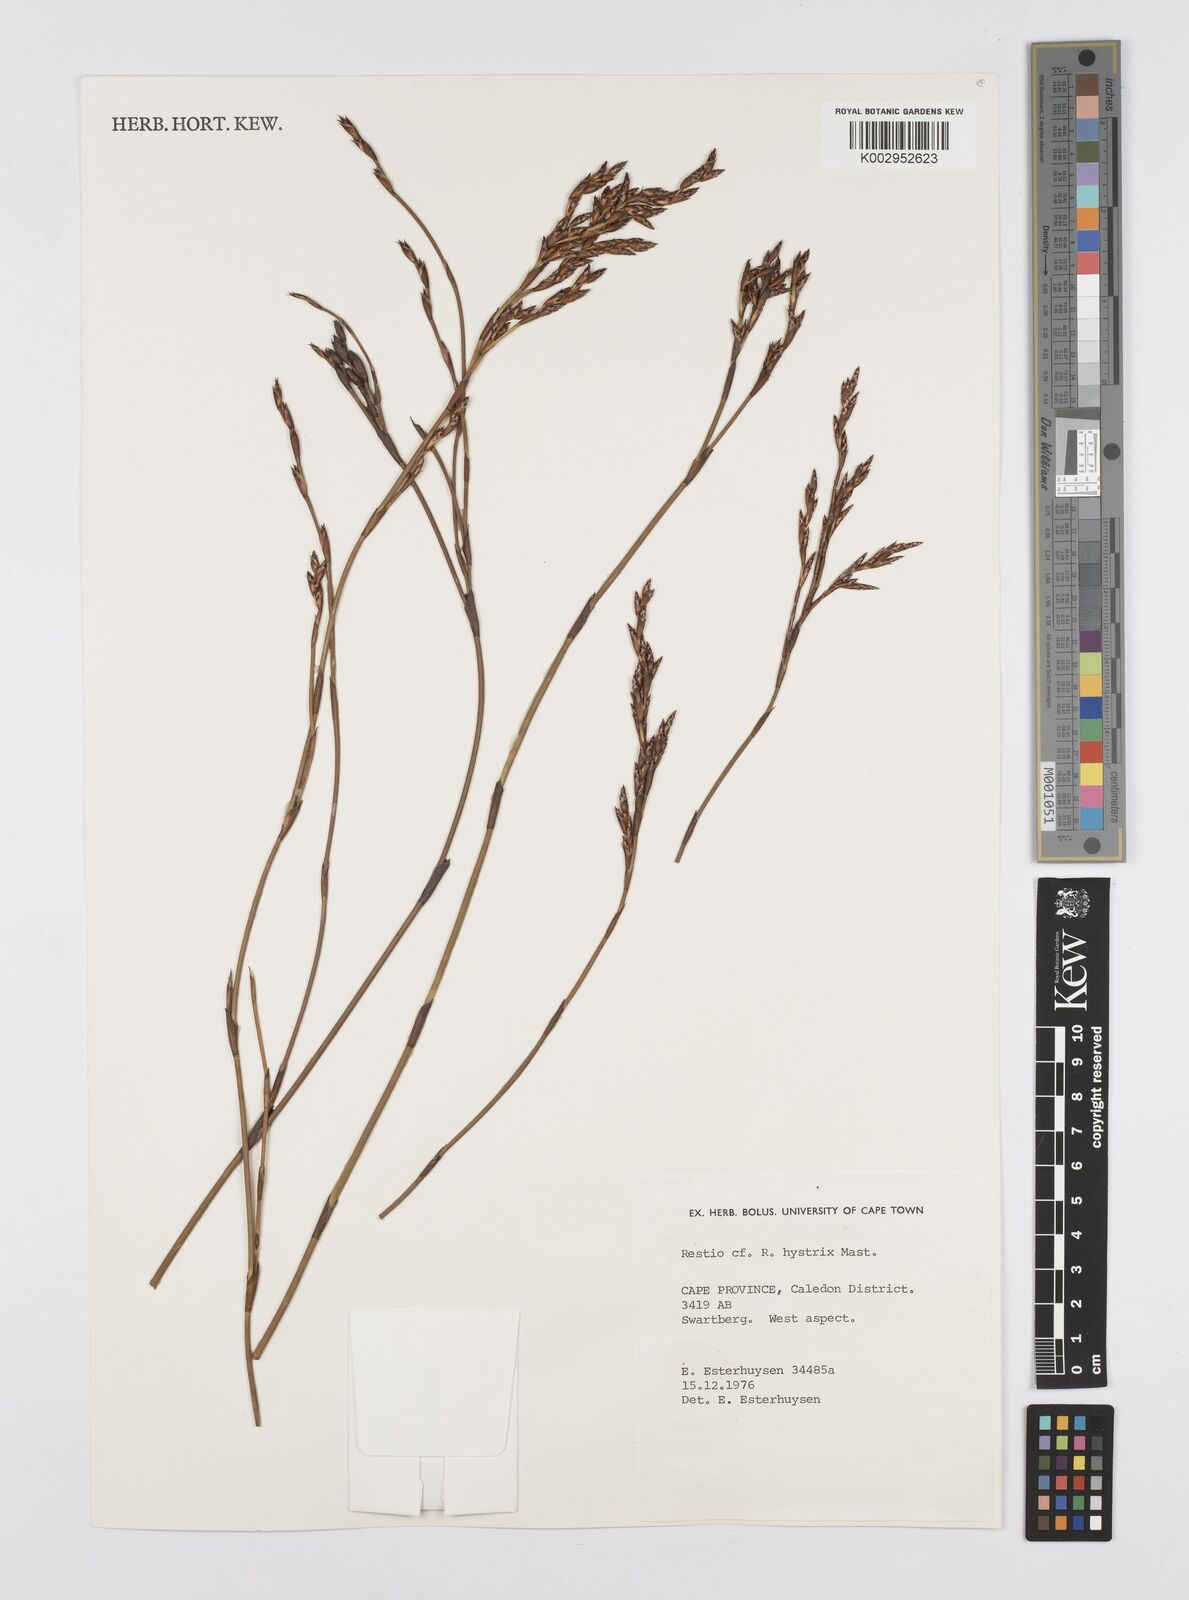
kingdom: Plantae
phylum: Tracheophyta
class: Liliopsida
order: Poales
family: Restionaceae
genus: Restio
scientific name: Restio hystrix
